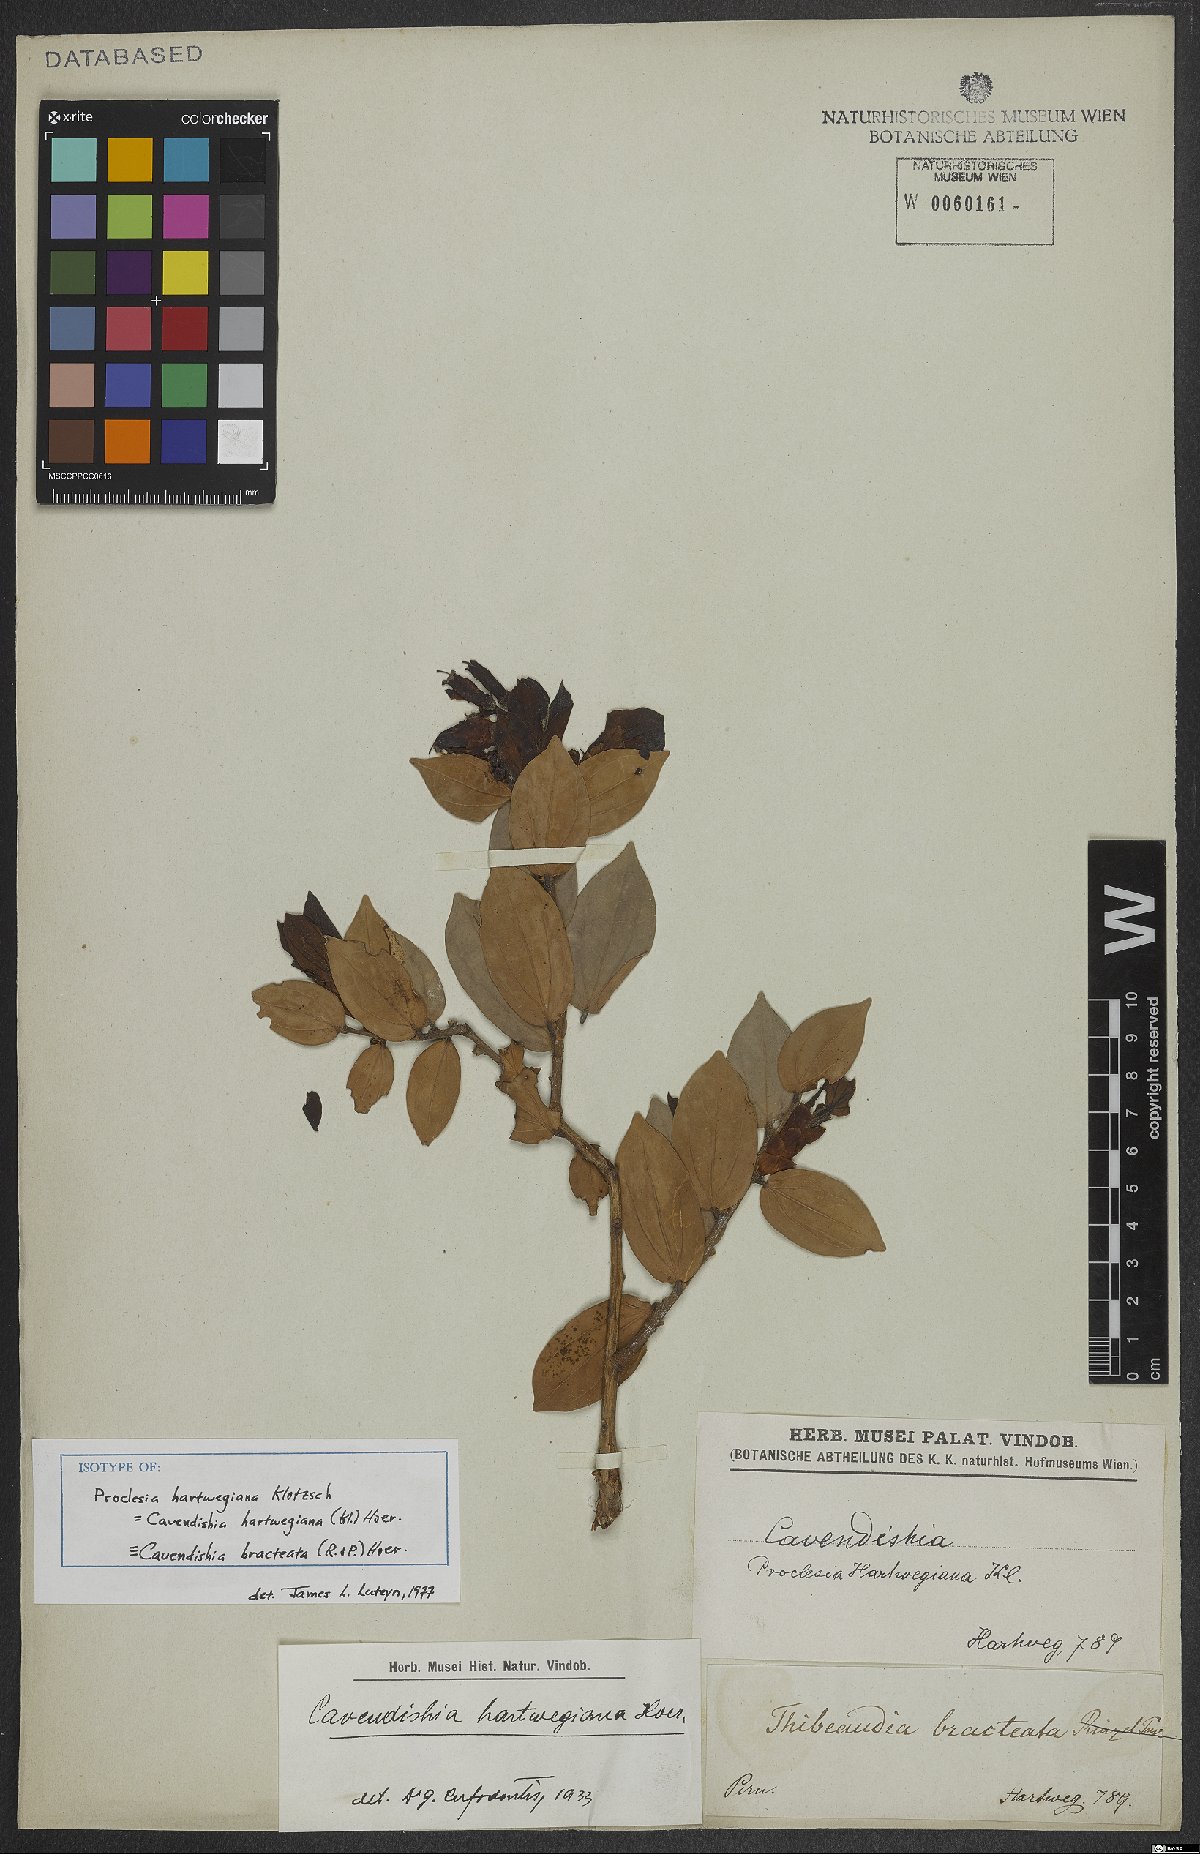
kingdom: Plantae
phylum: Tracheophyta
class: Magnoliopsida
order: Ericales
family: Ericaceae
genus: Cavendishia
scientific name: Cavendishia bracteata
